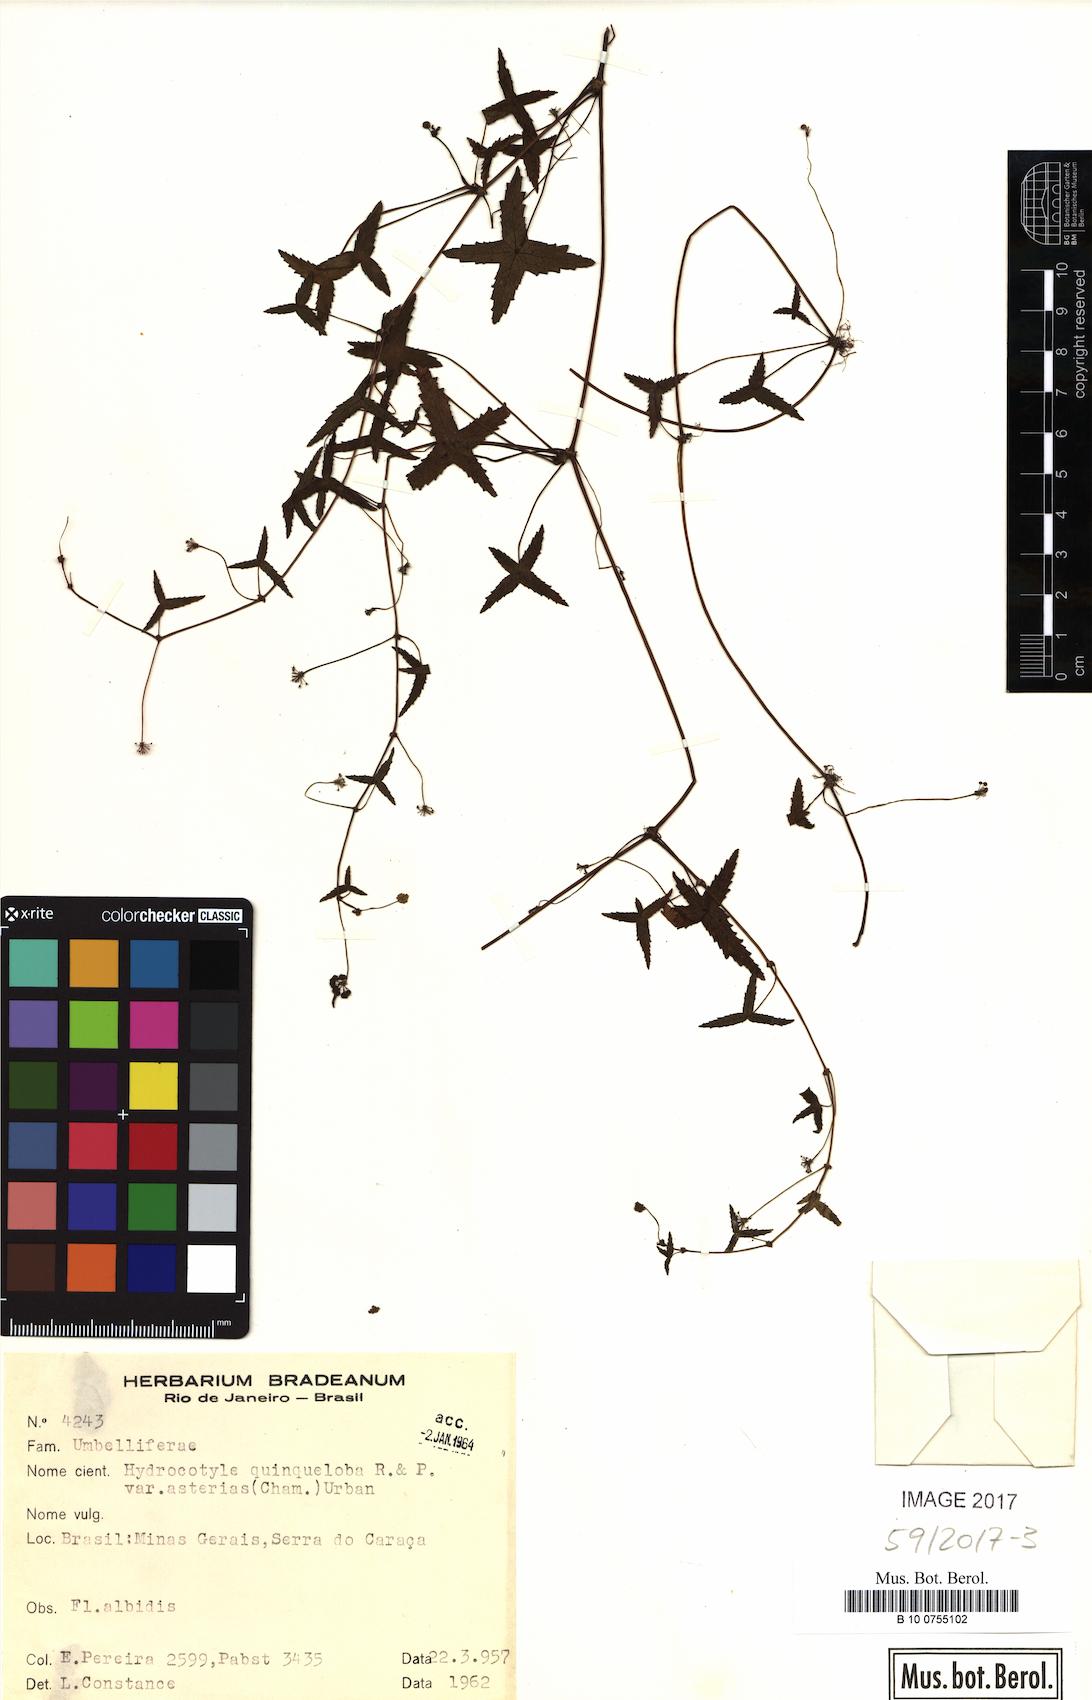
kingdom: Plantae
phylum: Tracheophyta
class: Magnoliopsida
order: Apiales
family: Araliaceae
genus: Hydrocotyle
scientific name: Hydrocotyle quinqueloba
